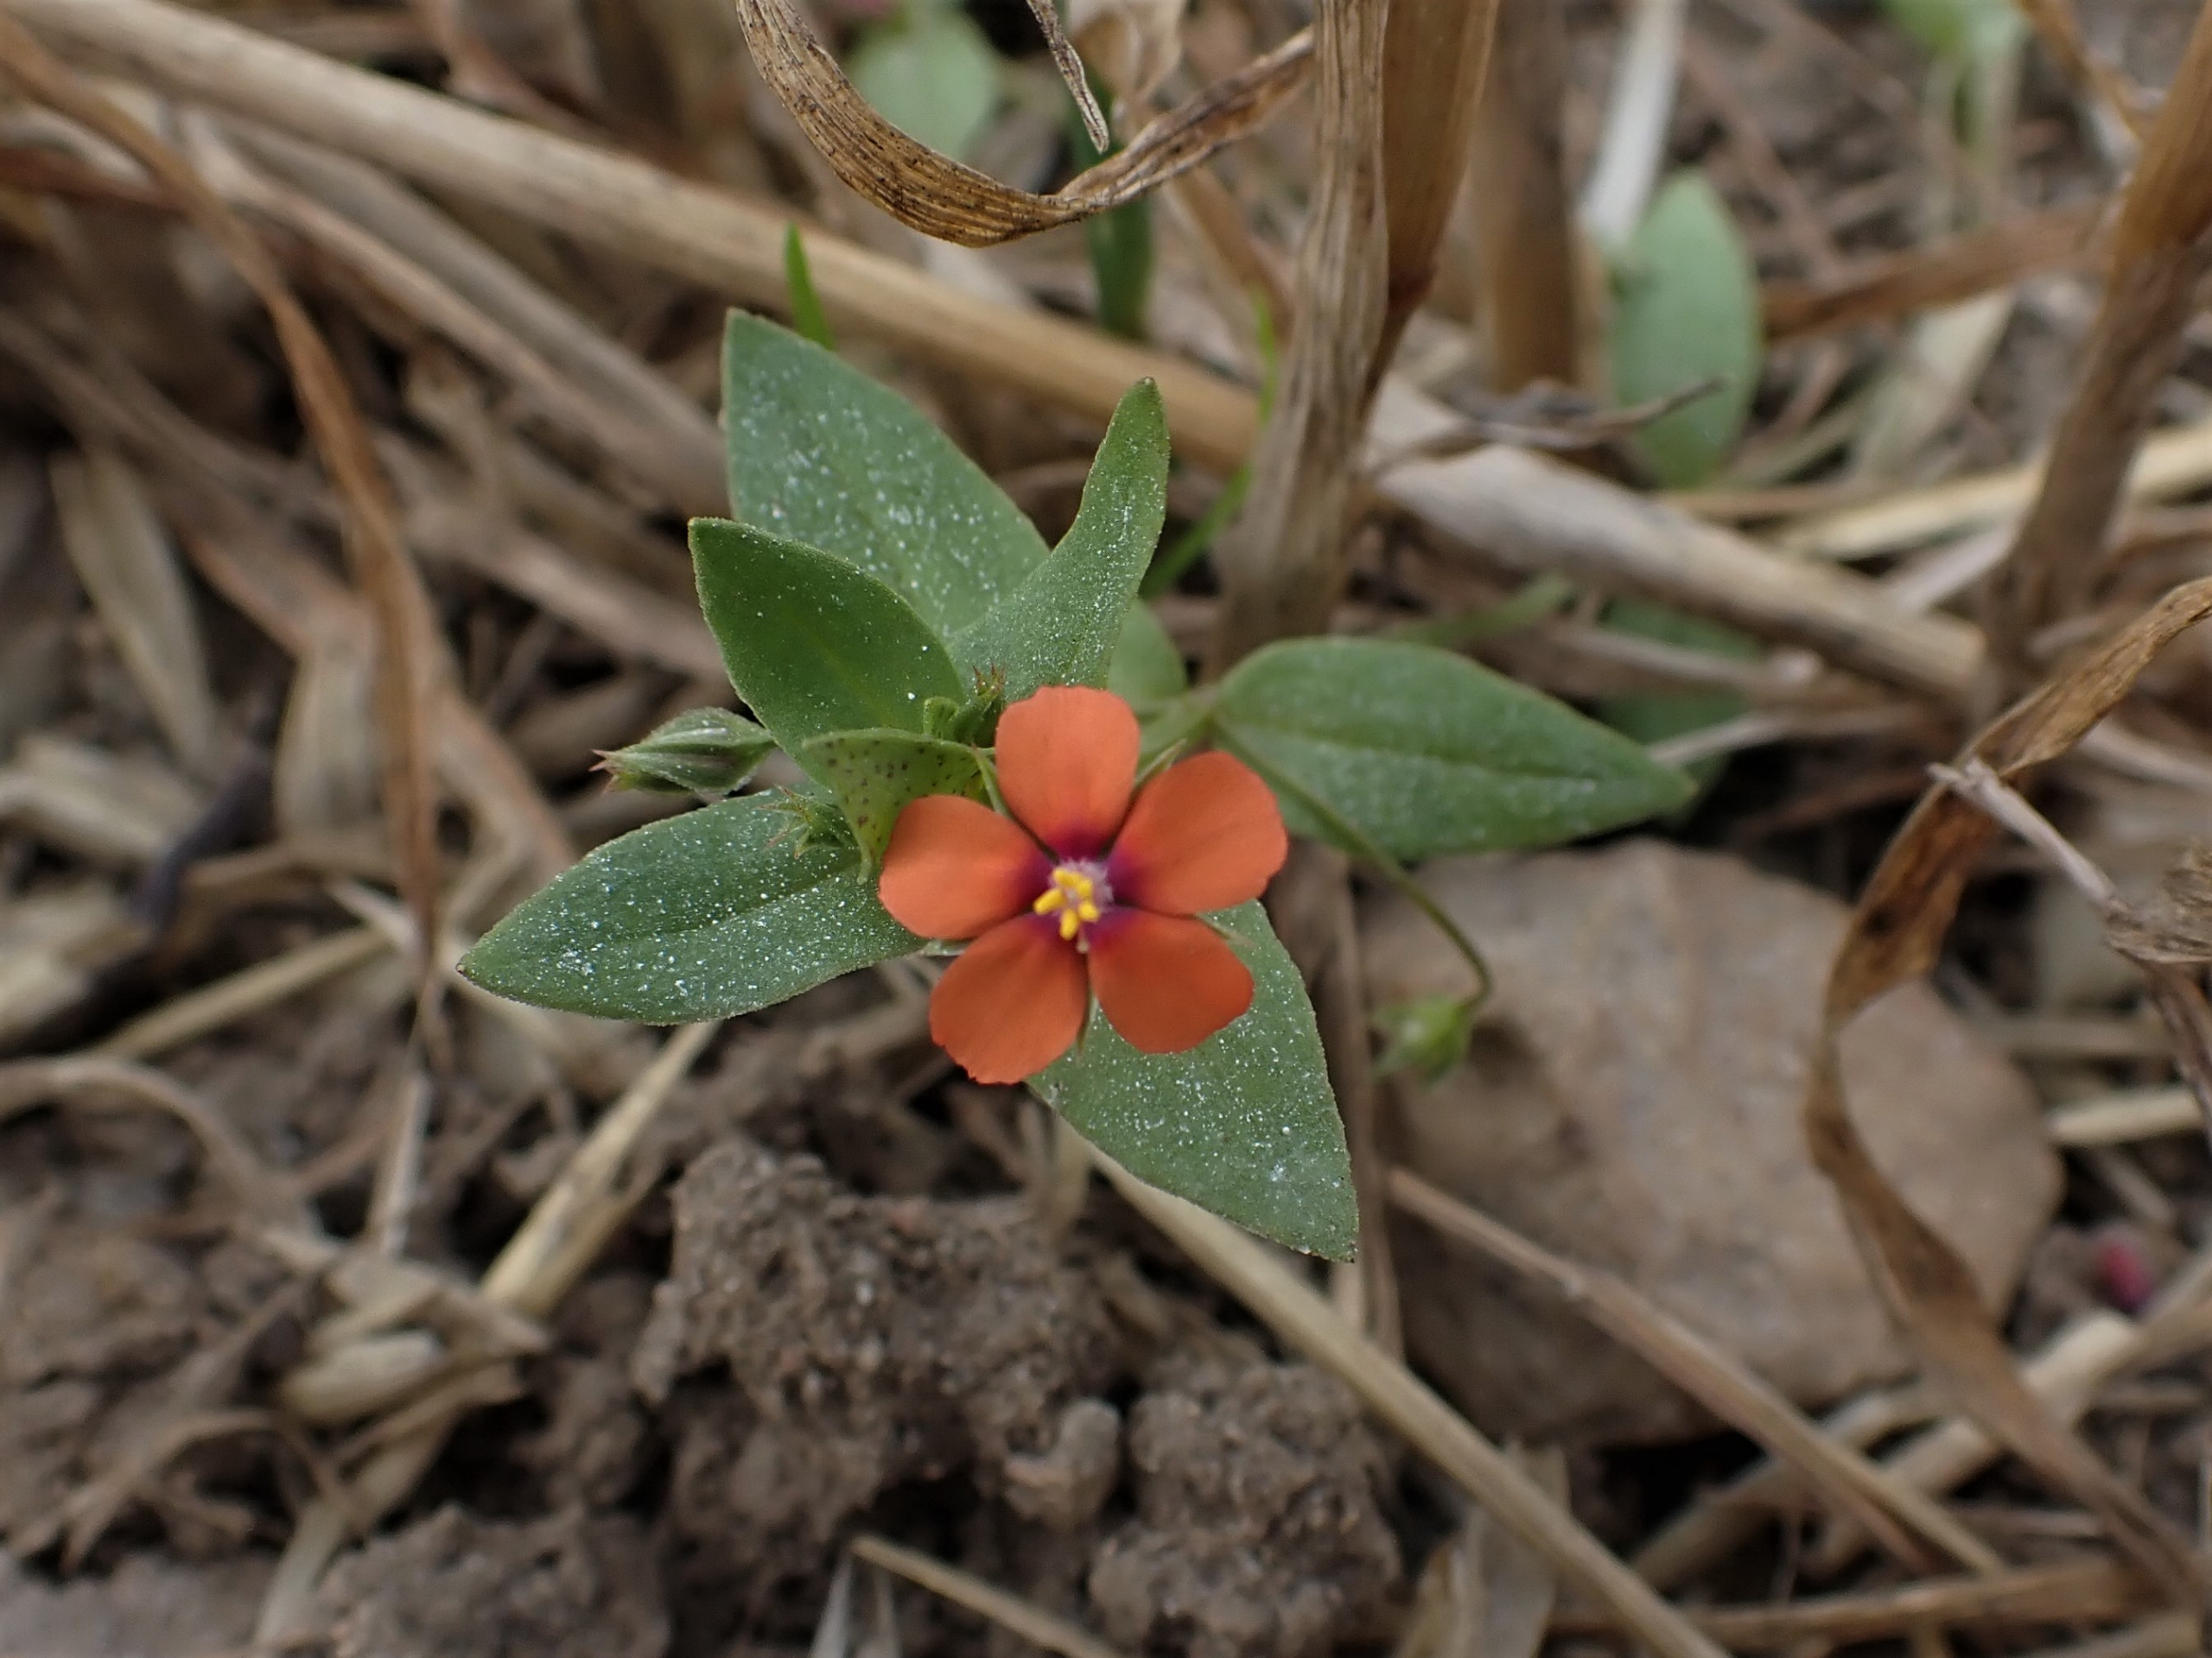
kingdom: Plantae
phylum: Tracheophyta
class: Magnoliopsida
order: Ericales
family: Primulaceae
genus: Lysimachia
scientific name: Lysimachia arvensis
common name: Rød arve
